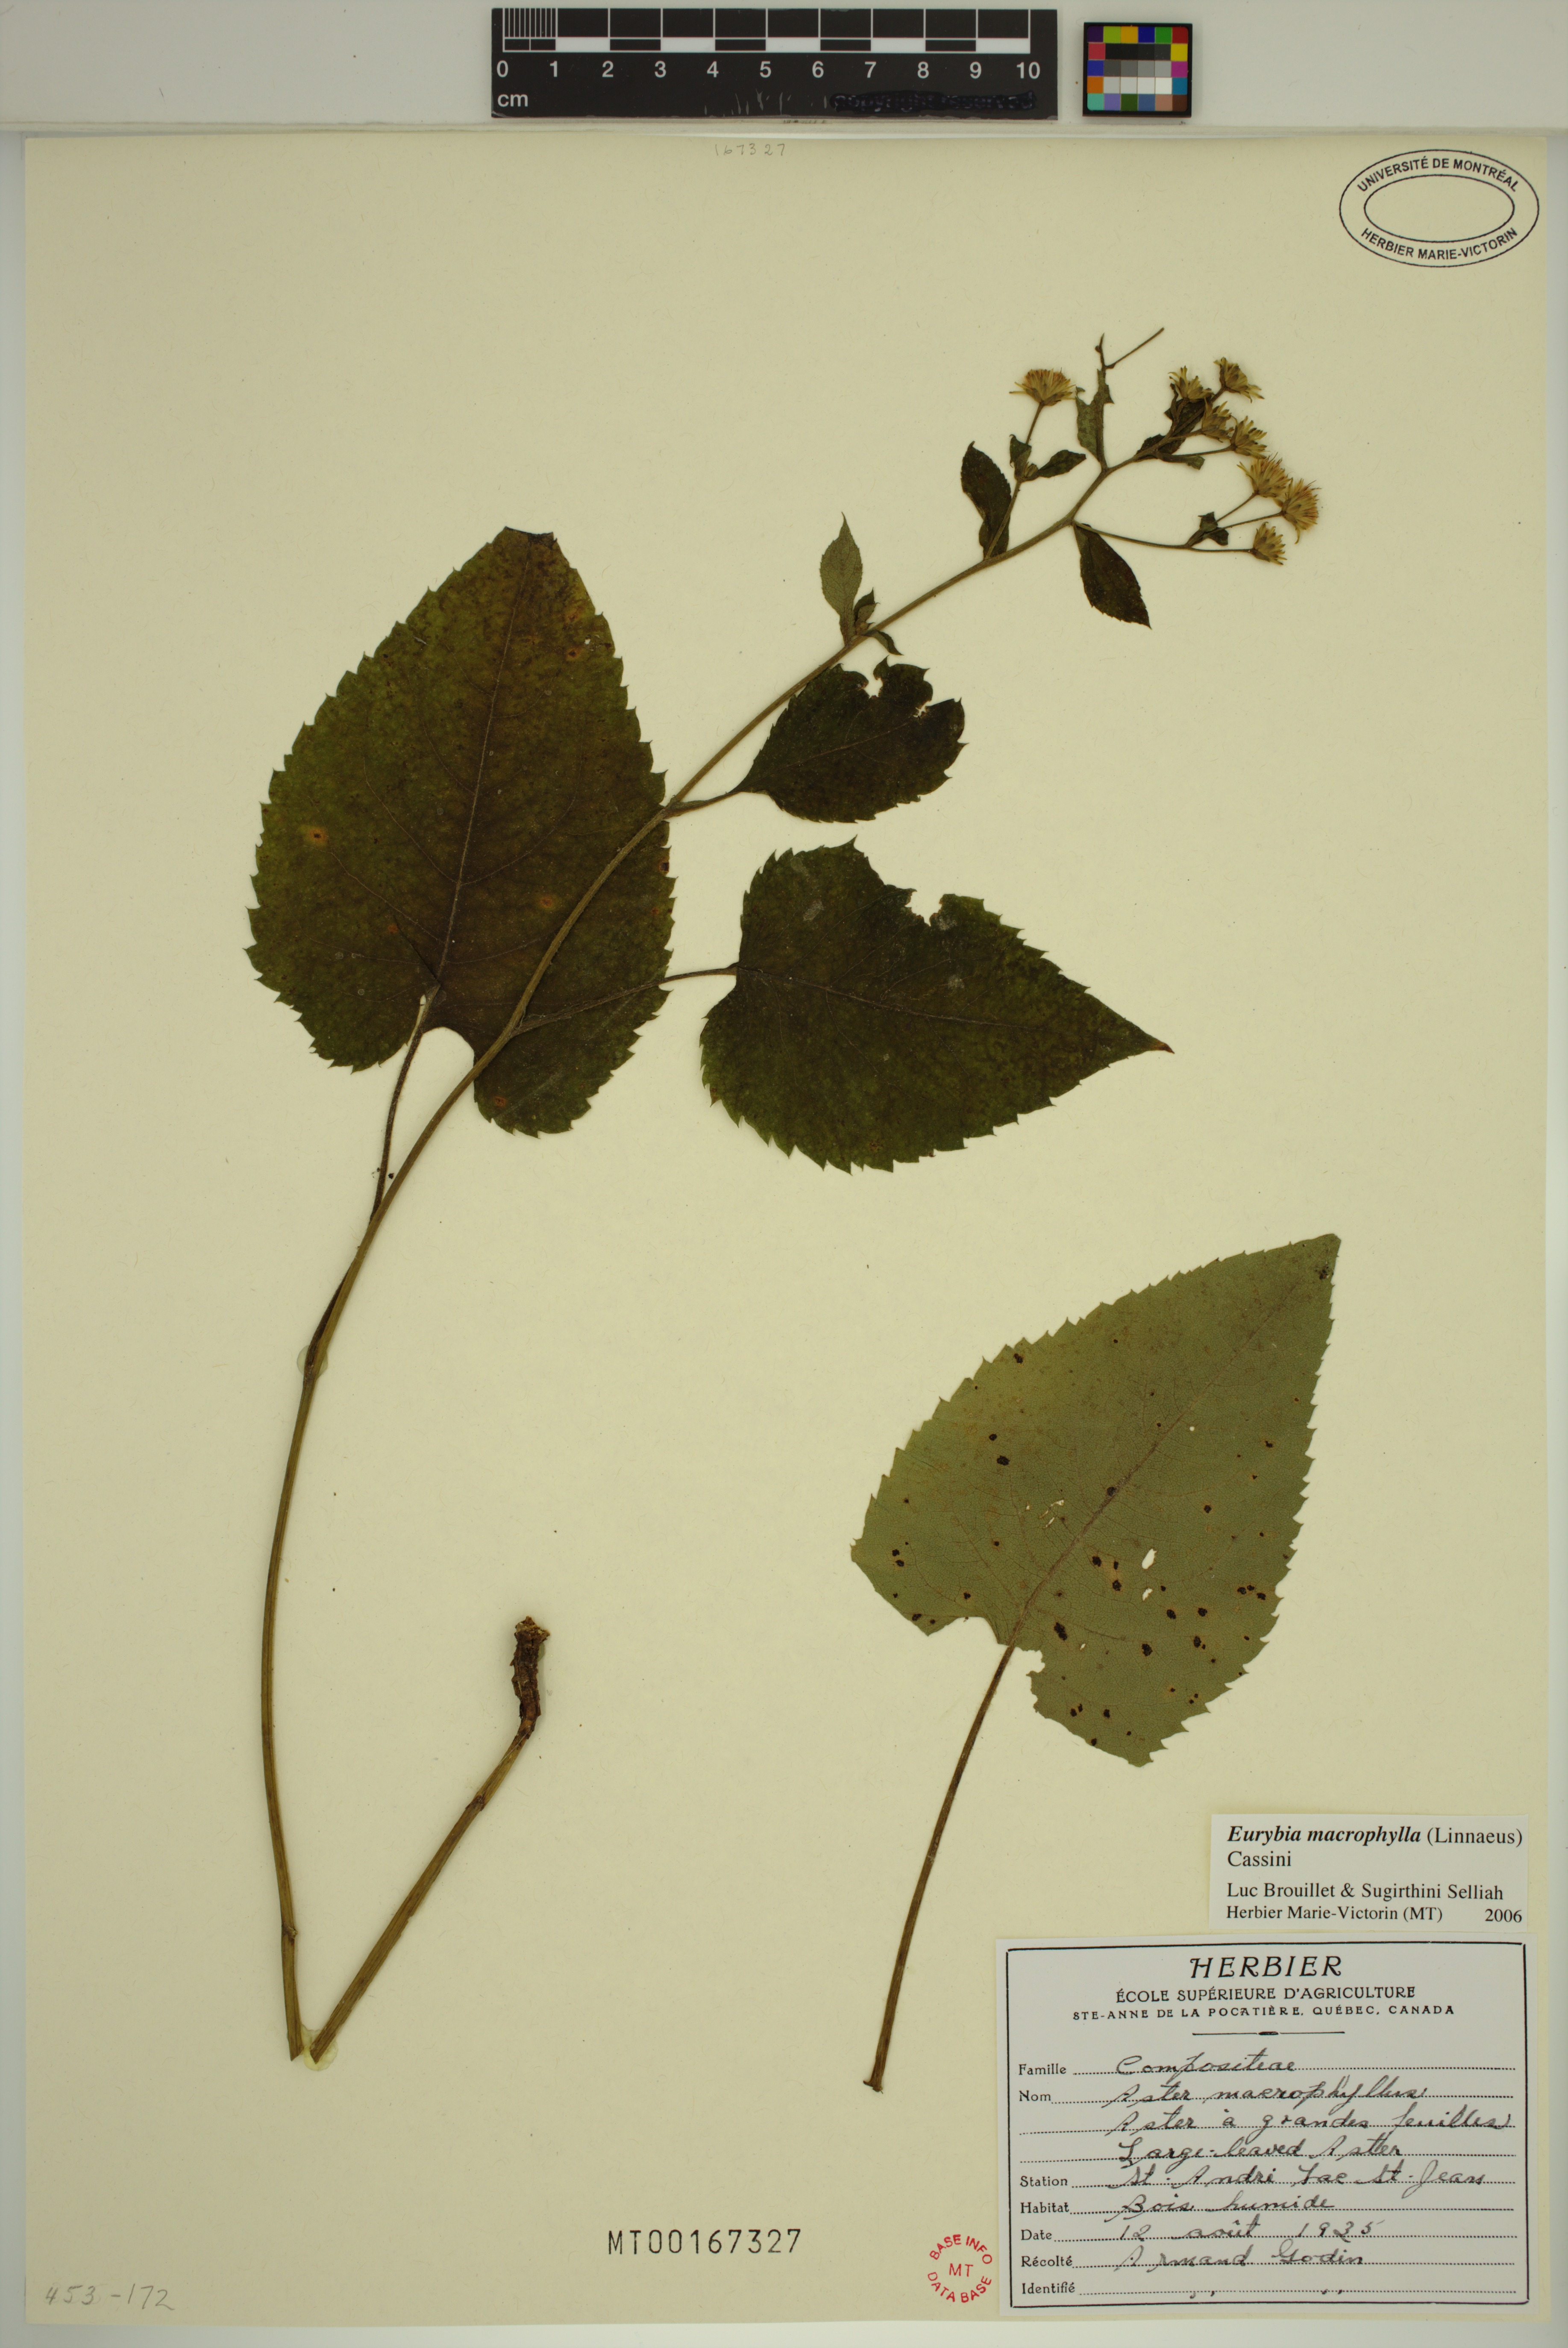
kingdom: Plantae
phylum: Tracheophyta
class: Magnoliopsida
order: Asterales
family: Asteraceae
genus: Eurybia
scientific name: Eurybia macrophylla
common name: Big-leaved aster
